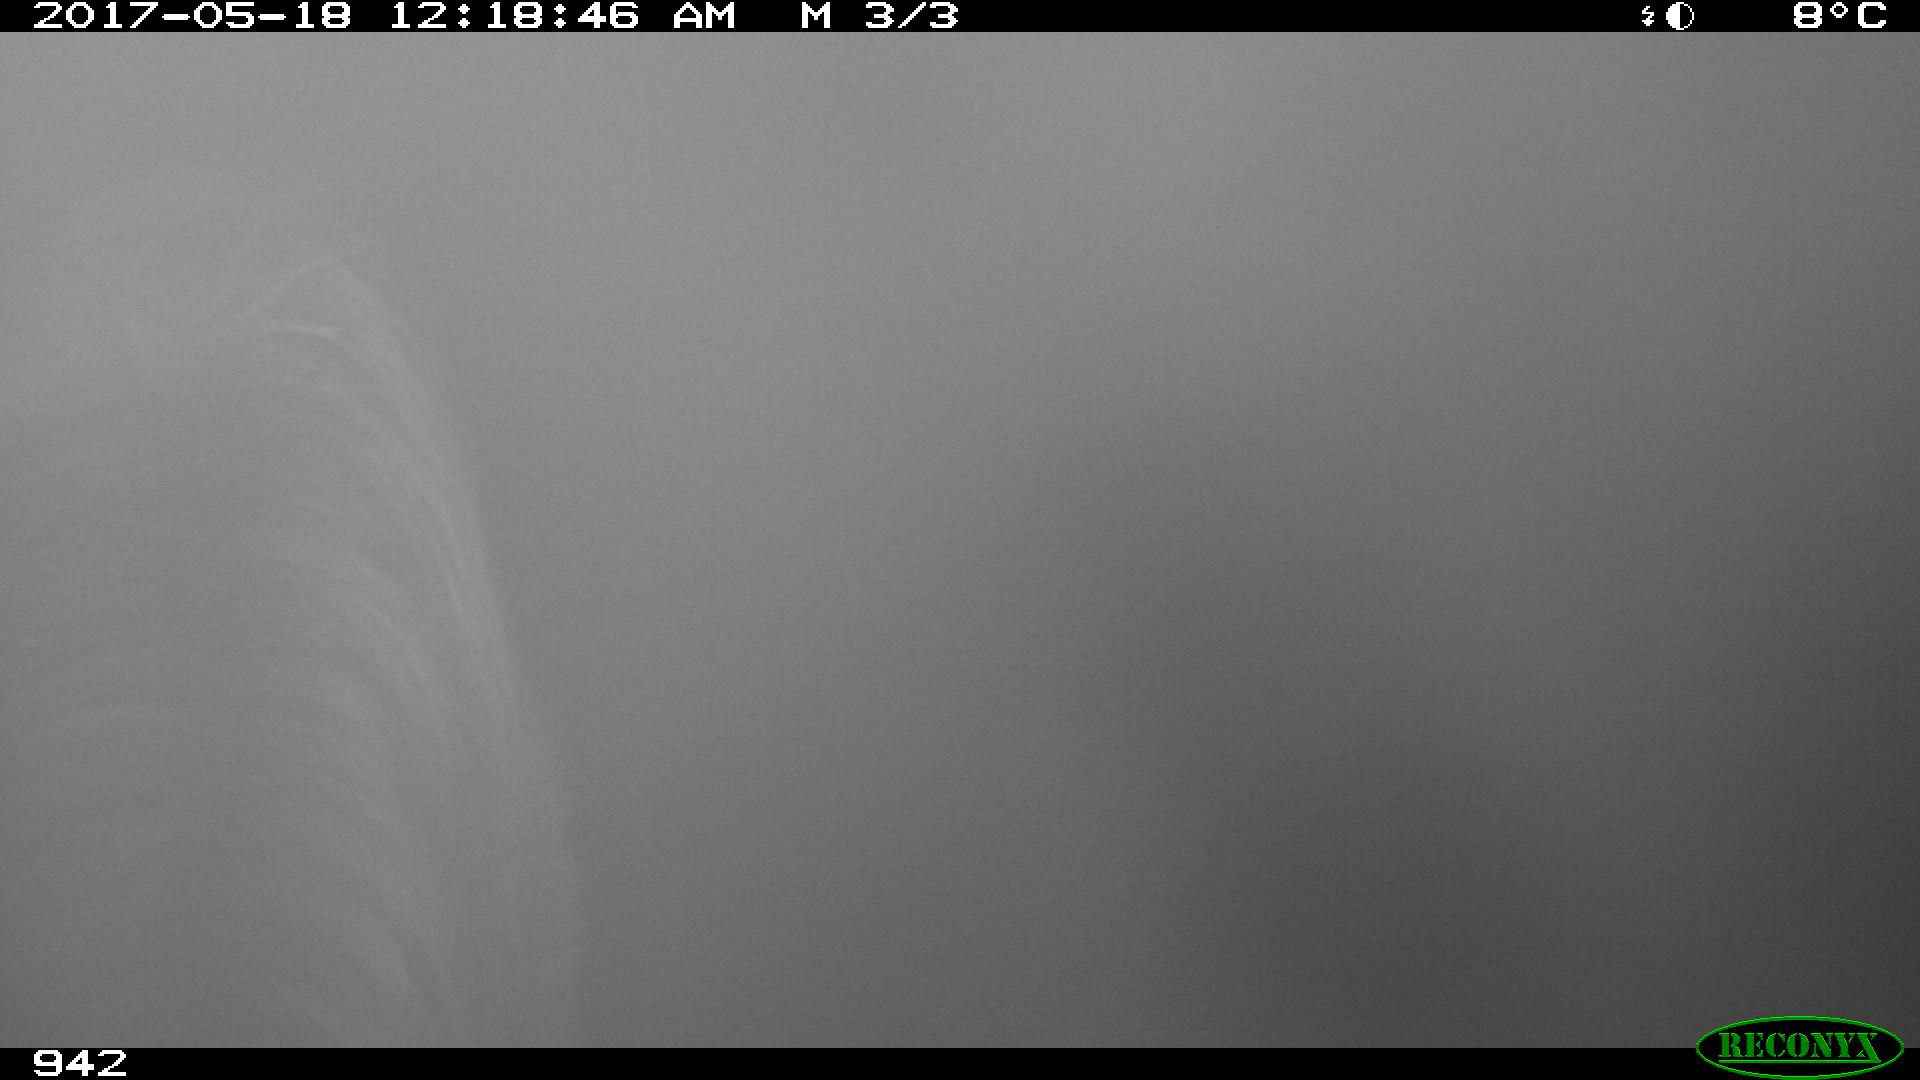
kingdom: Animalia
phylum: Chordata
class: Mammalia
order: Perissodactyla
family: Equidae
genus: Equus
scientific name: Equus caballus
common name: Horse
